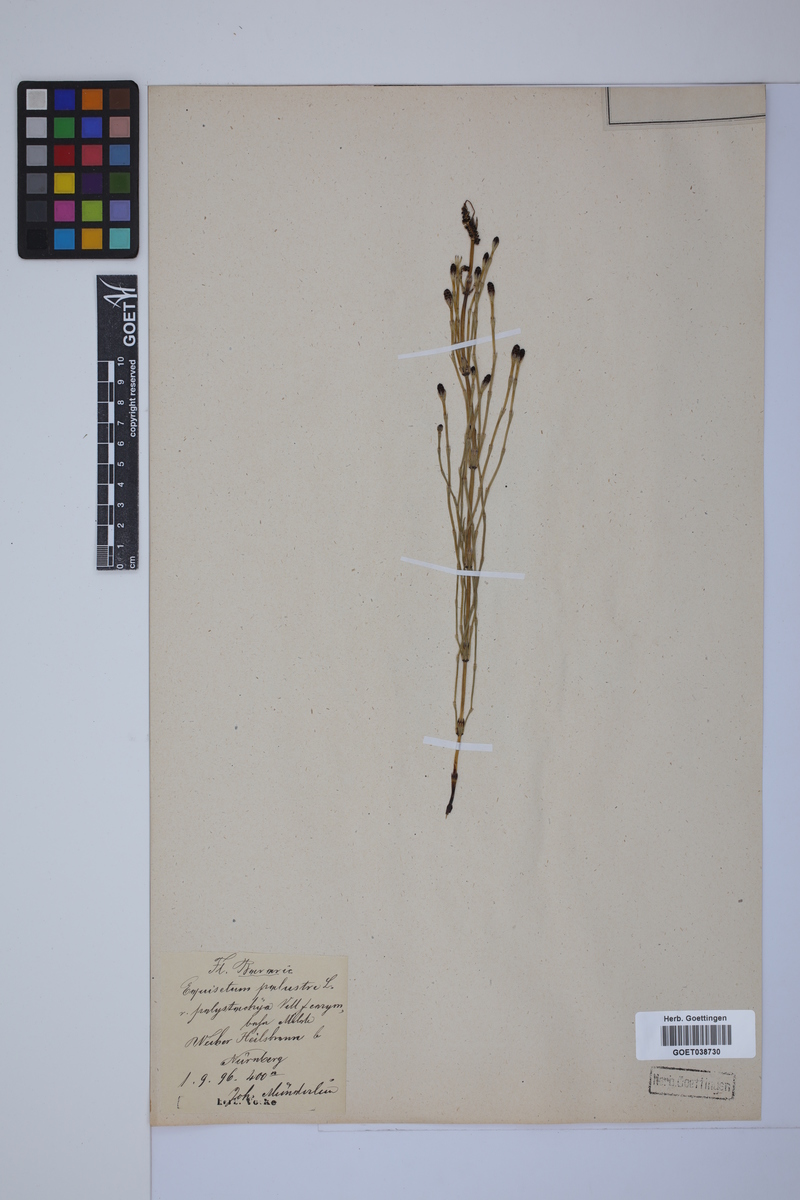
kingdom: Plantae
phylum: Tracheophyta
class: Polypodiopsida
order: Equisetales
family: Equisetaceae
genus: Equisetum
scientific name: Equisetum palustre
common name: Marsh horsetail
